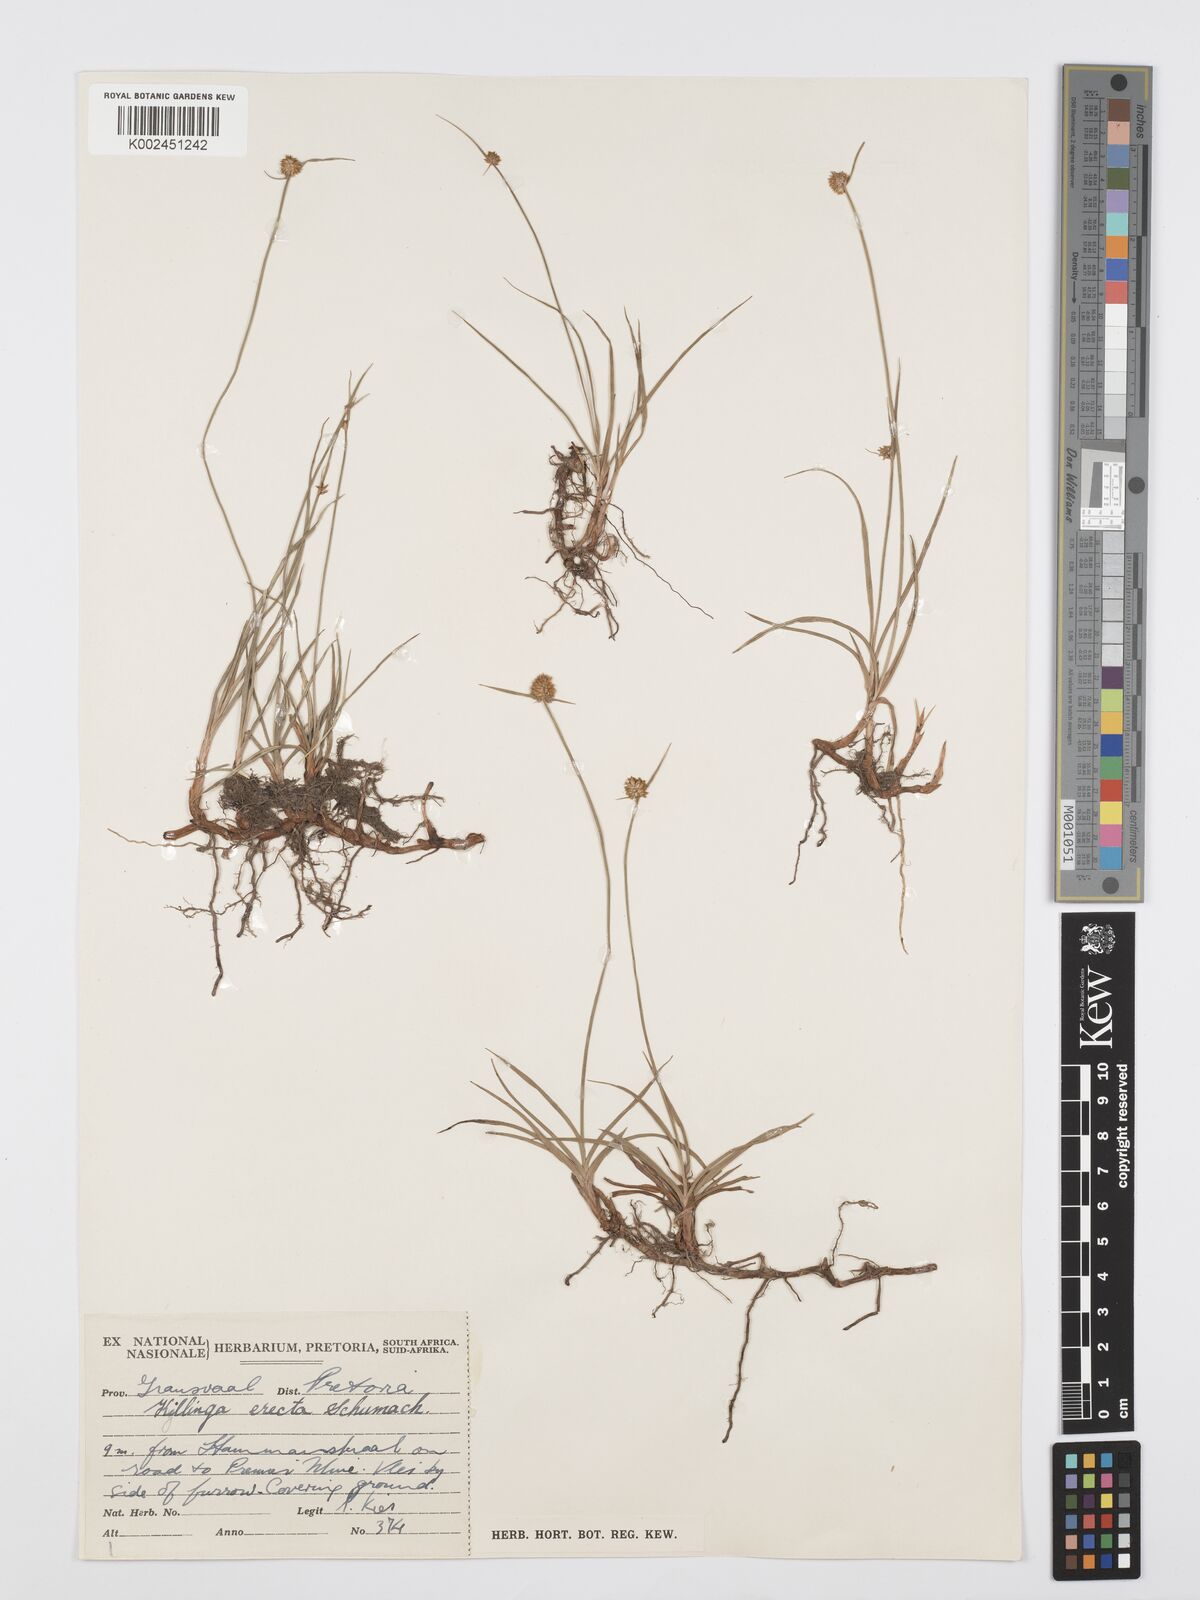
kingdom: Plantae
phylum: Tracheophyta
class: Liliopsida
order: Poales
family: Cyperaceae
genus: Cyperus
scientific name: Cyperus erectus
